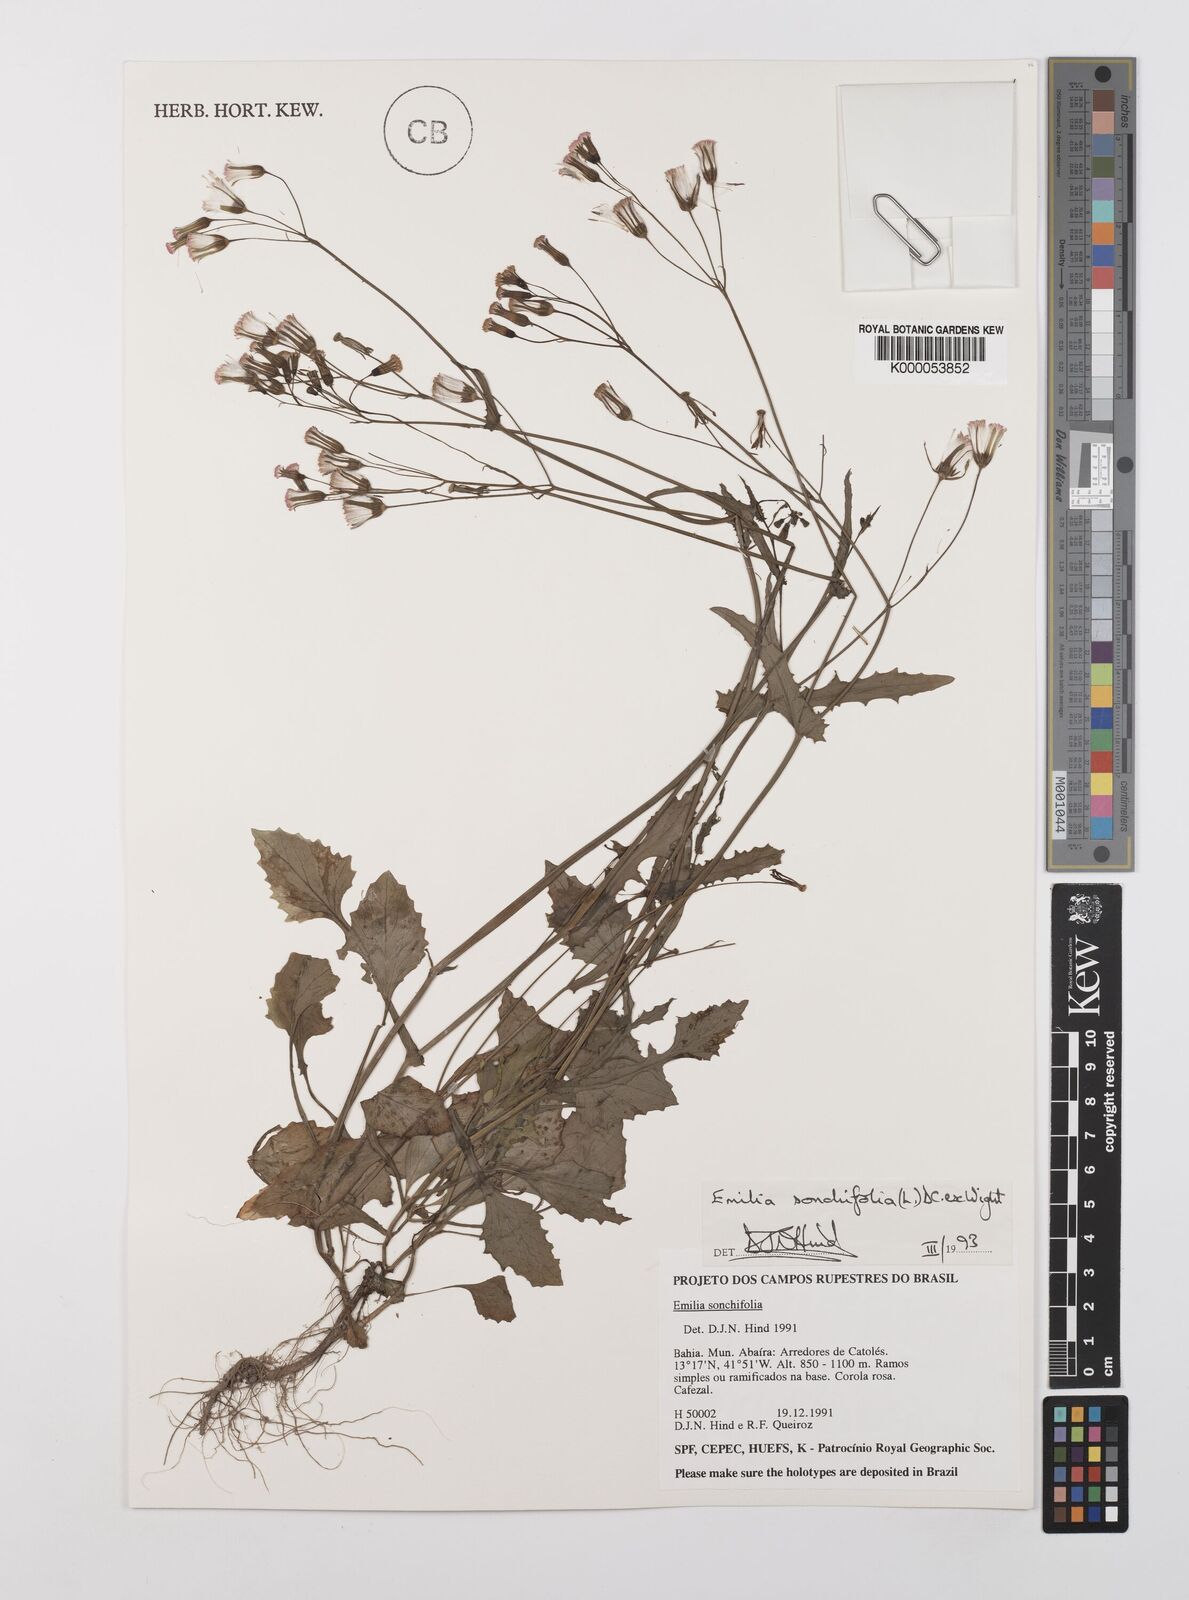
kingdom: Plantae
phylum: Tracheophyta
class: Magnoliopsida
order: Asterales
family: Asteraceae
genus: Emilia
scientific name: Emilia
